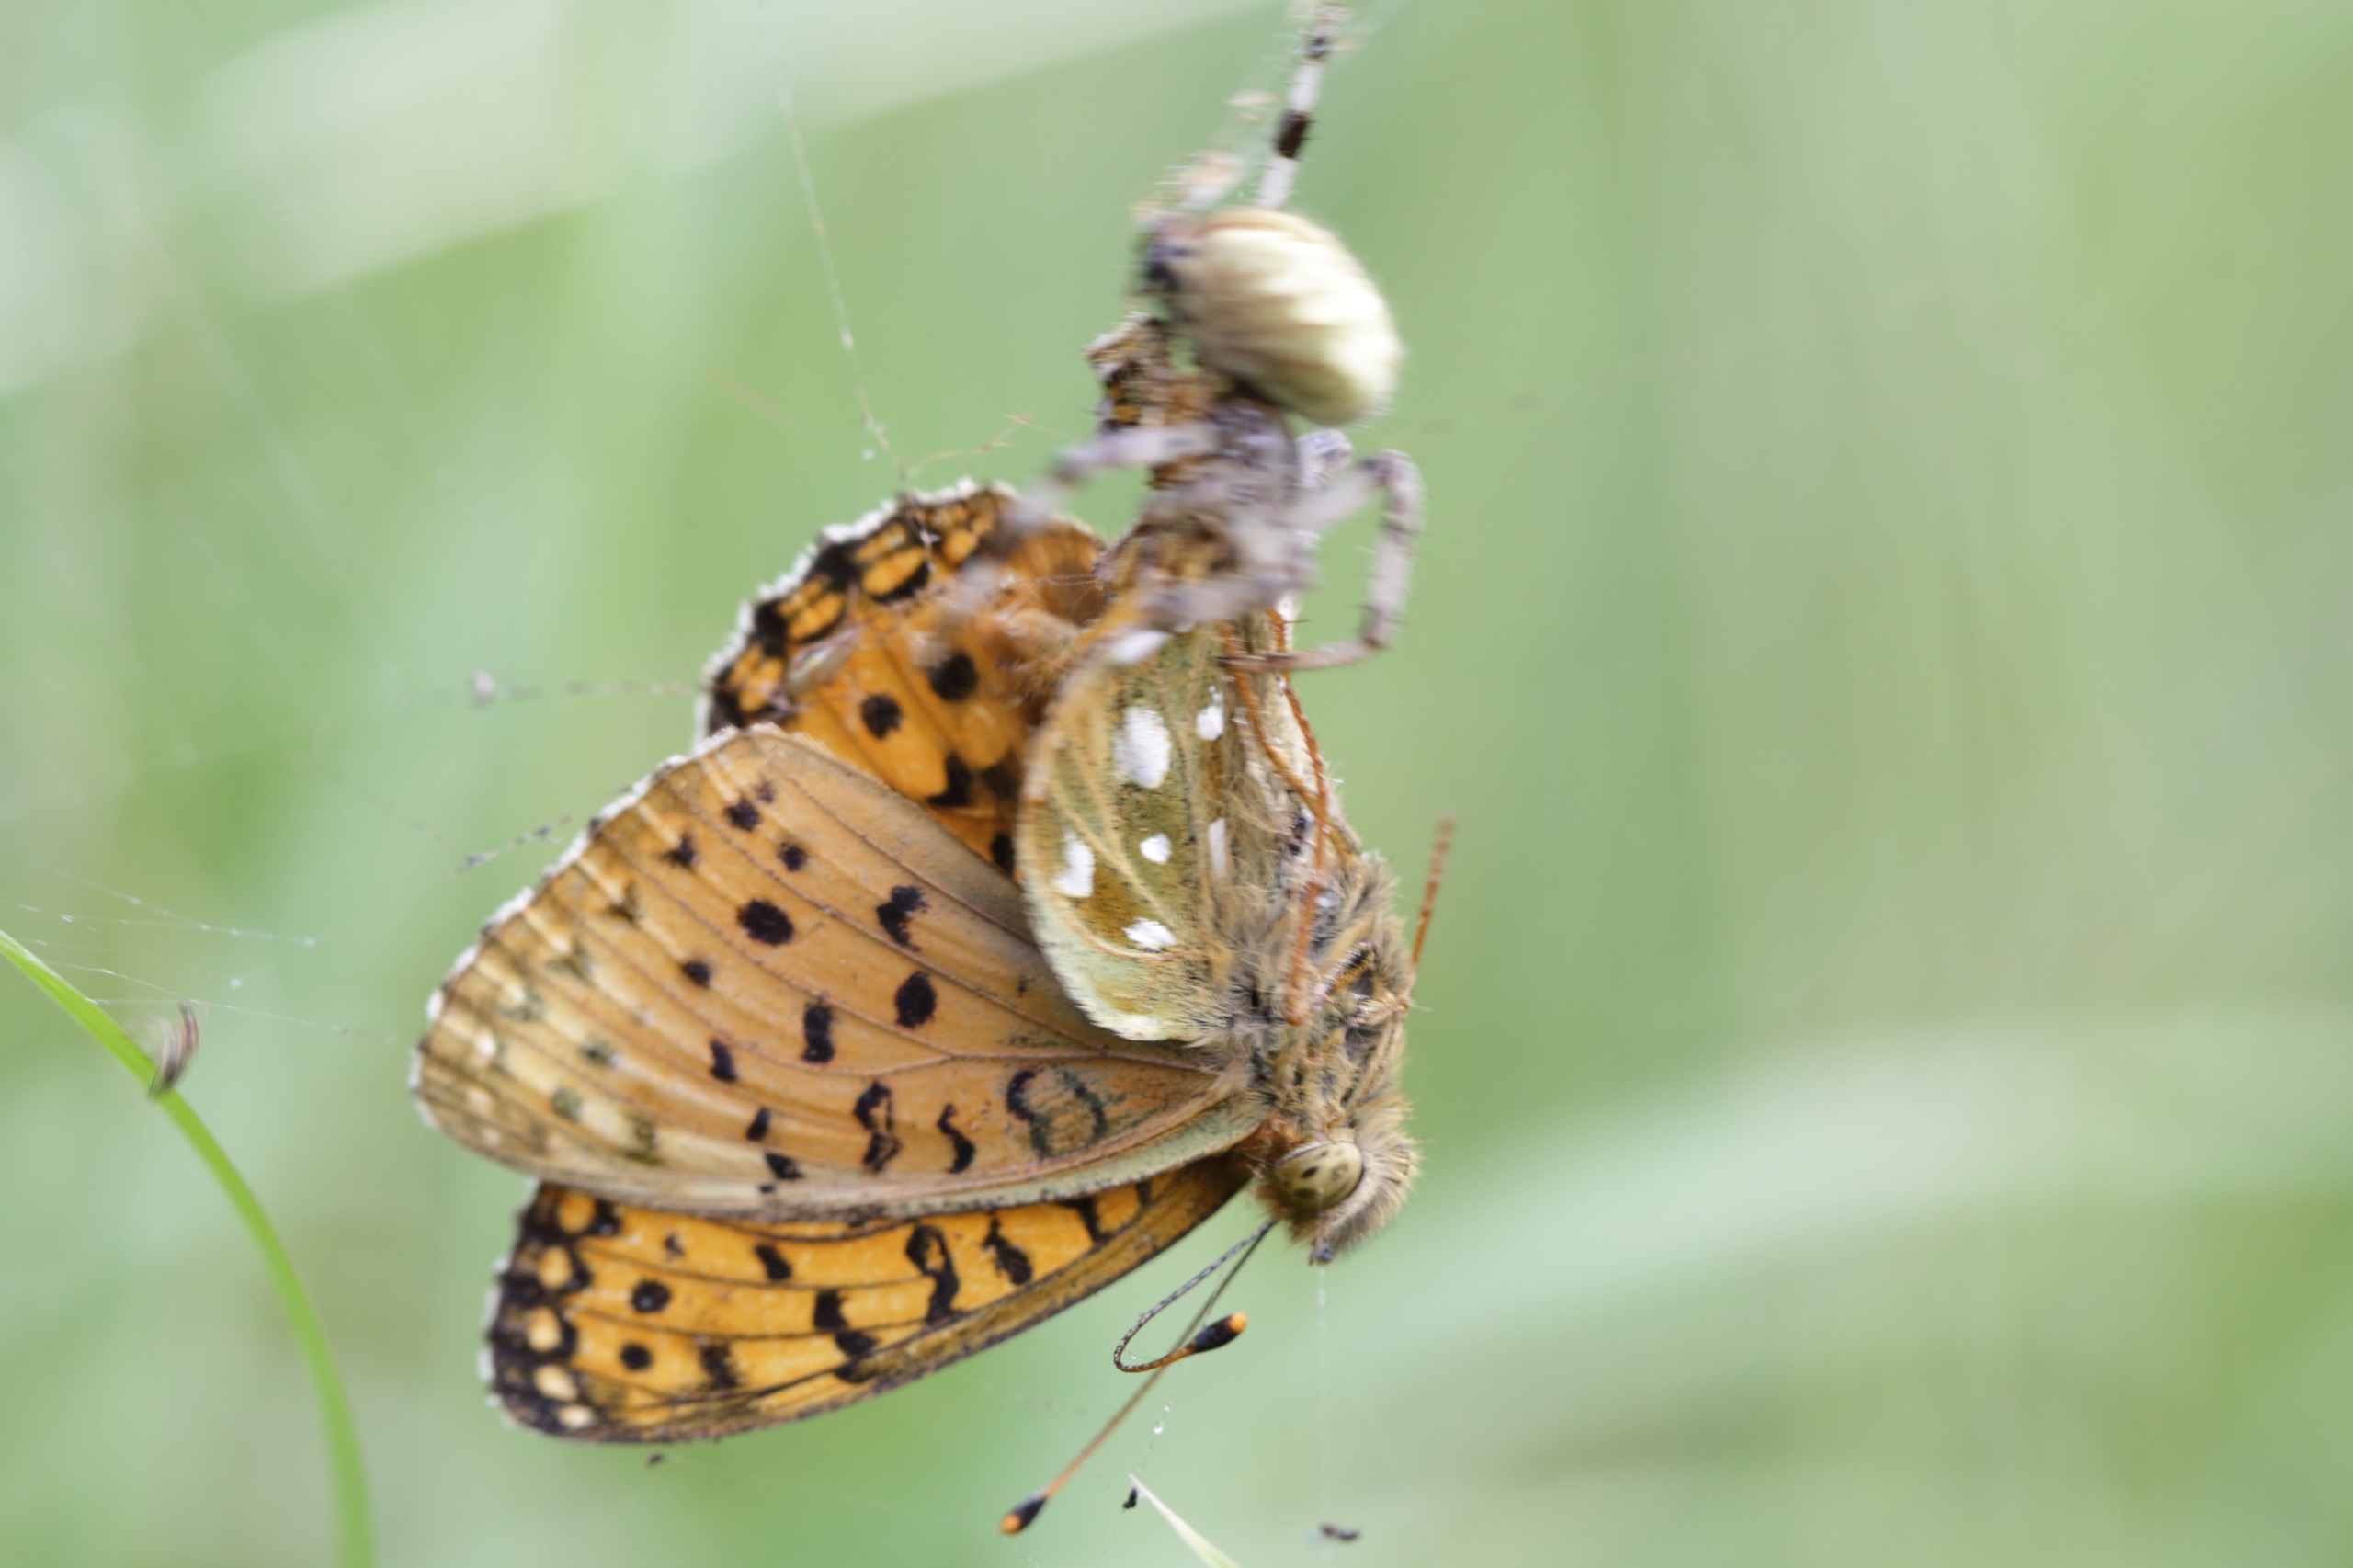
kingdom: Animalia
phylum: Arthropoda
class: Arachnida
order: Araneae
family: Araneidae
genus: Araneus
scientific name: Araneus quadratus
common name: Kvadratedderkop
